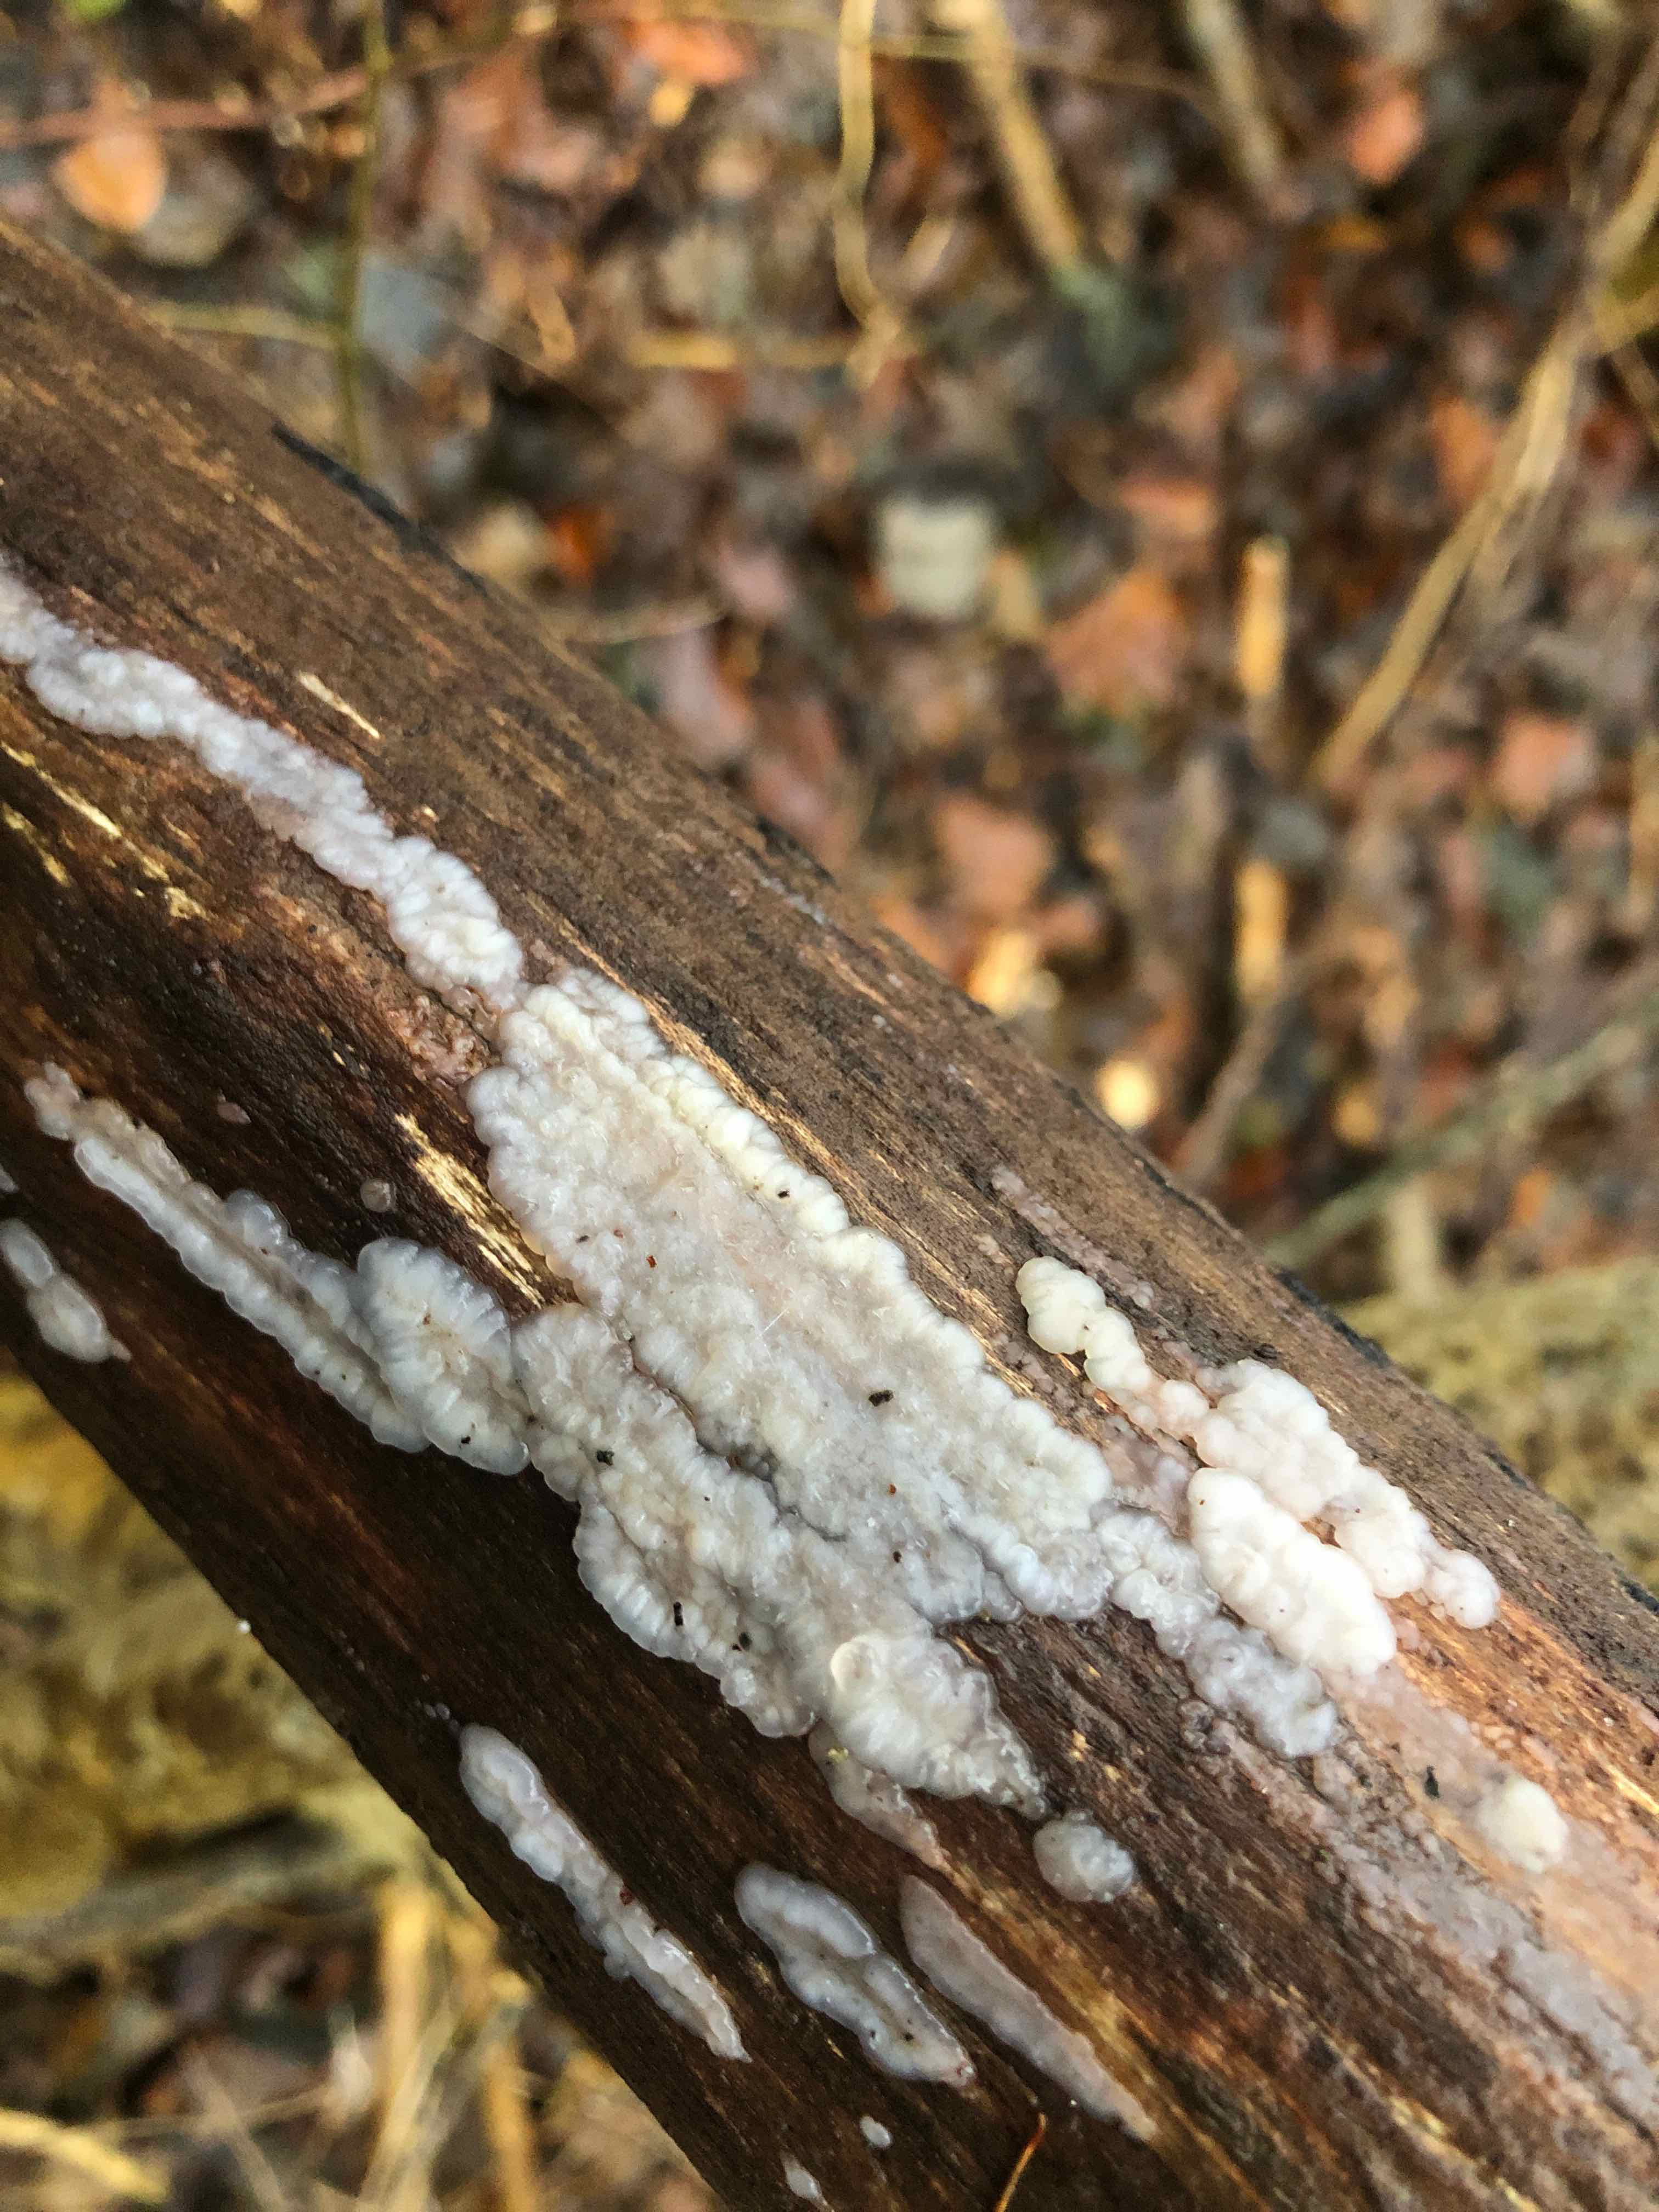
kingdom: Fungi
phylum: Basidiomycota
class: Agaricomycetes
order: Auriculariales
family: Auriculariaceae
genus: Exidia
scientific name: Exidia thuretiana
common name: hvidlig bævretop
